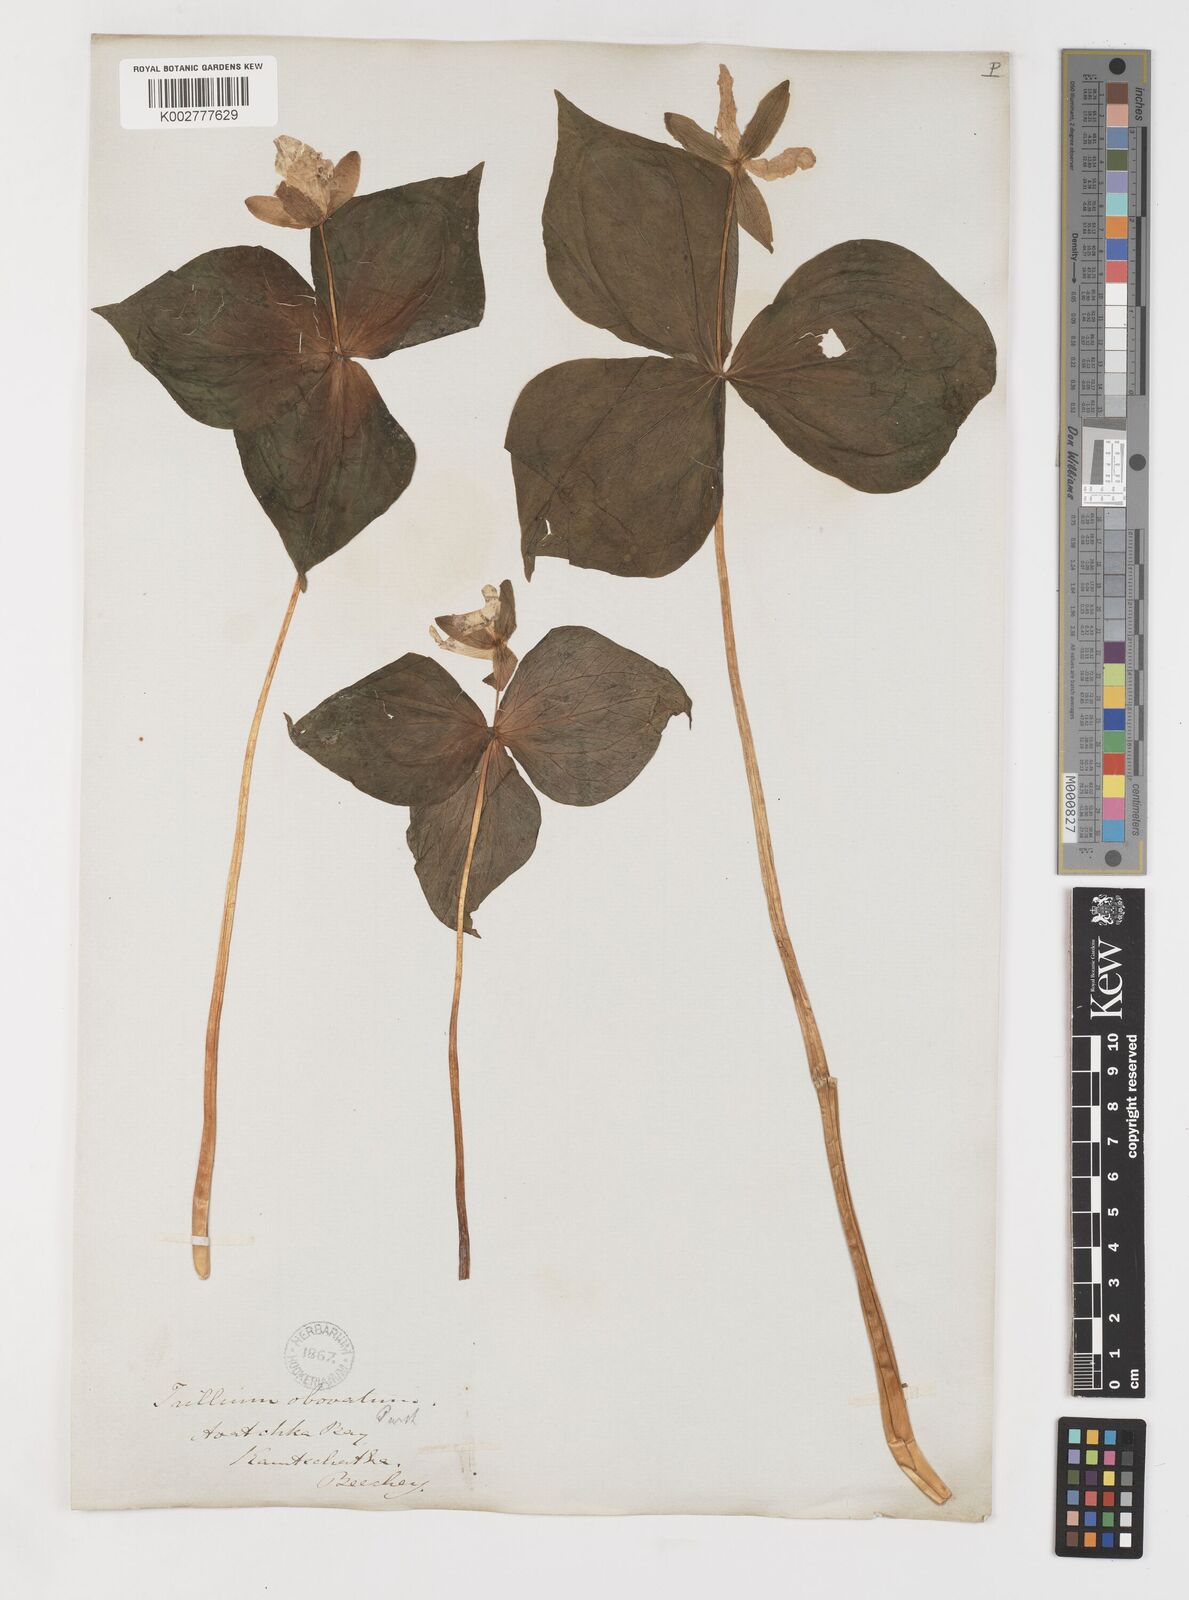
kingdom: Plantae
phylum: Tracheophyta
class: Liliopsida
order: Liliales
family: Melanthiaceae
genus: Trillium
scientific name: Trillium erectum
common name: Purple trillium
